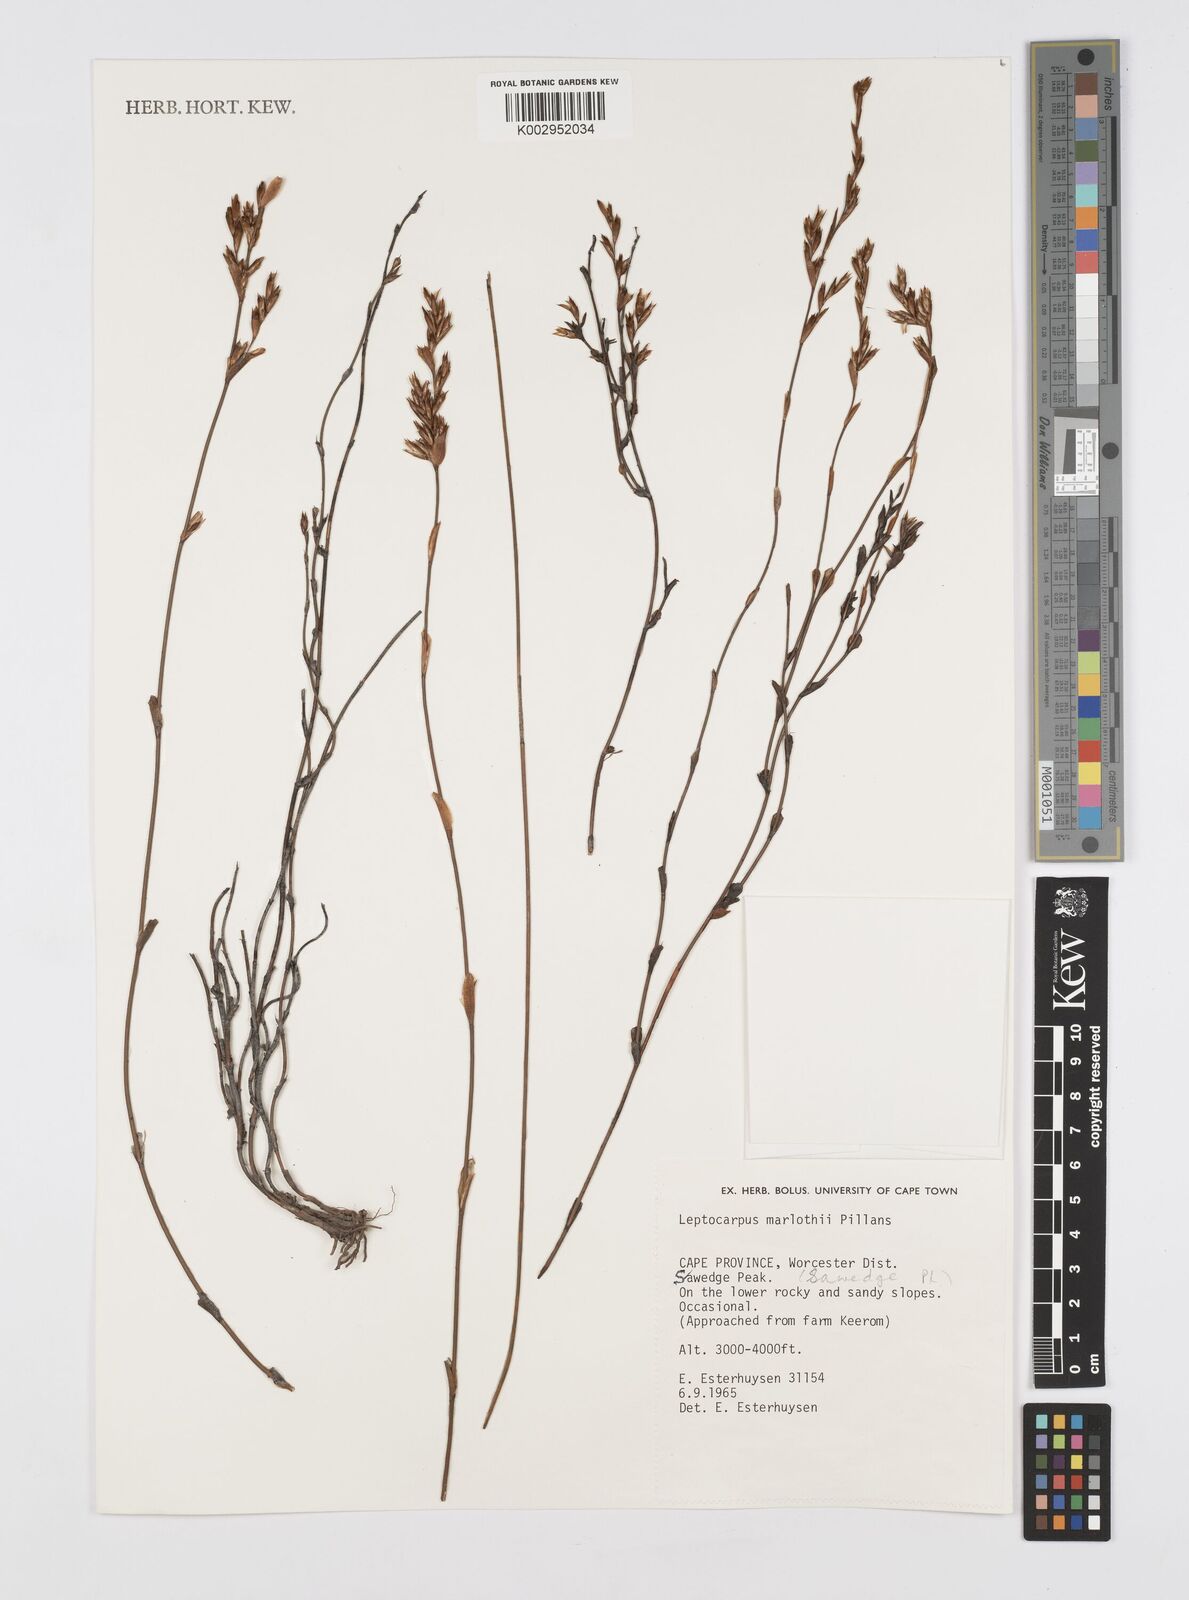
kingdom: Plantae
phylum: Tracheophyta
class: Liliopsida
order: Poales
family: Restionaceae
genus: Restio
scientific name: Restio marlothii
